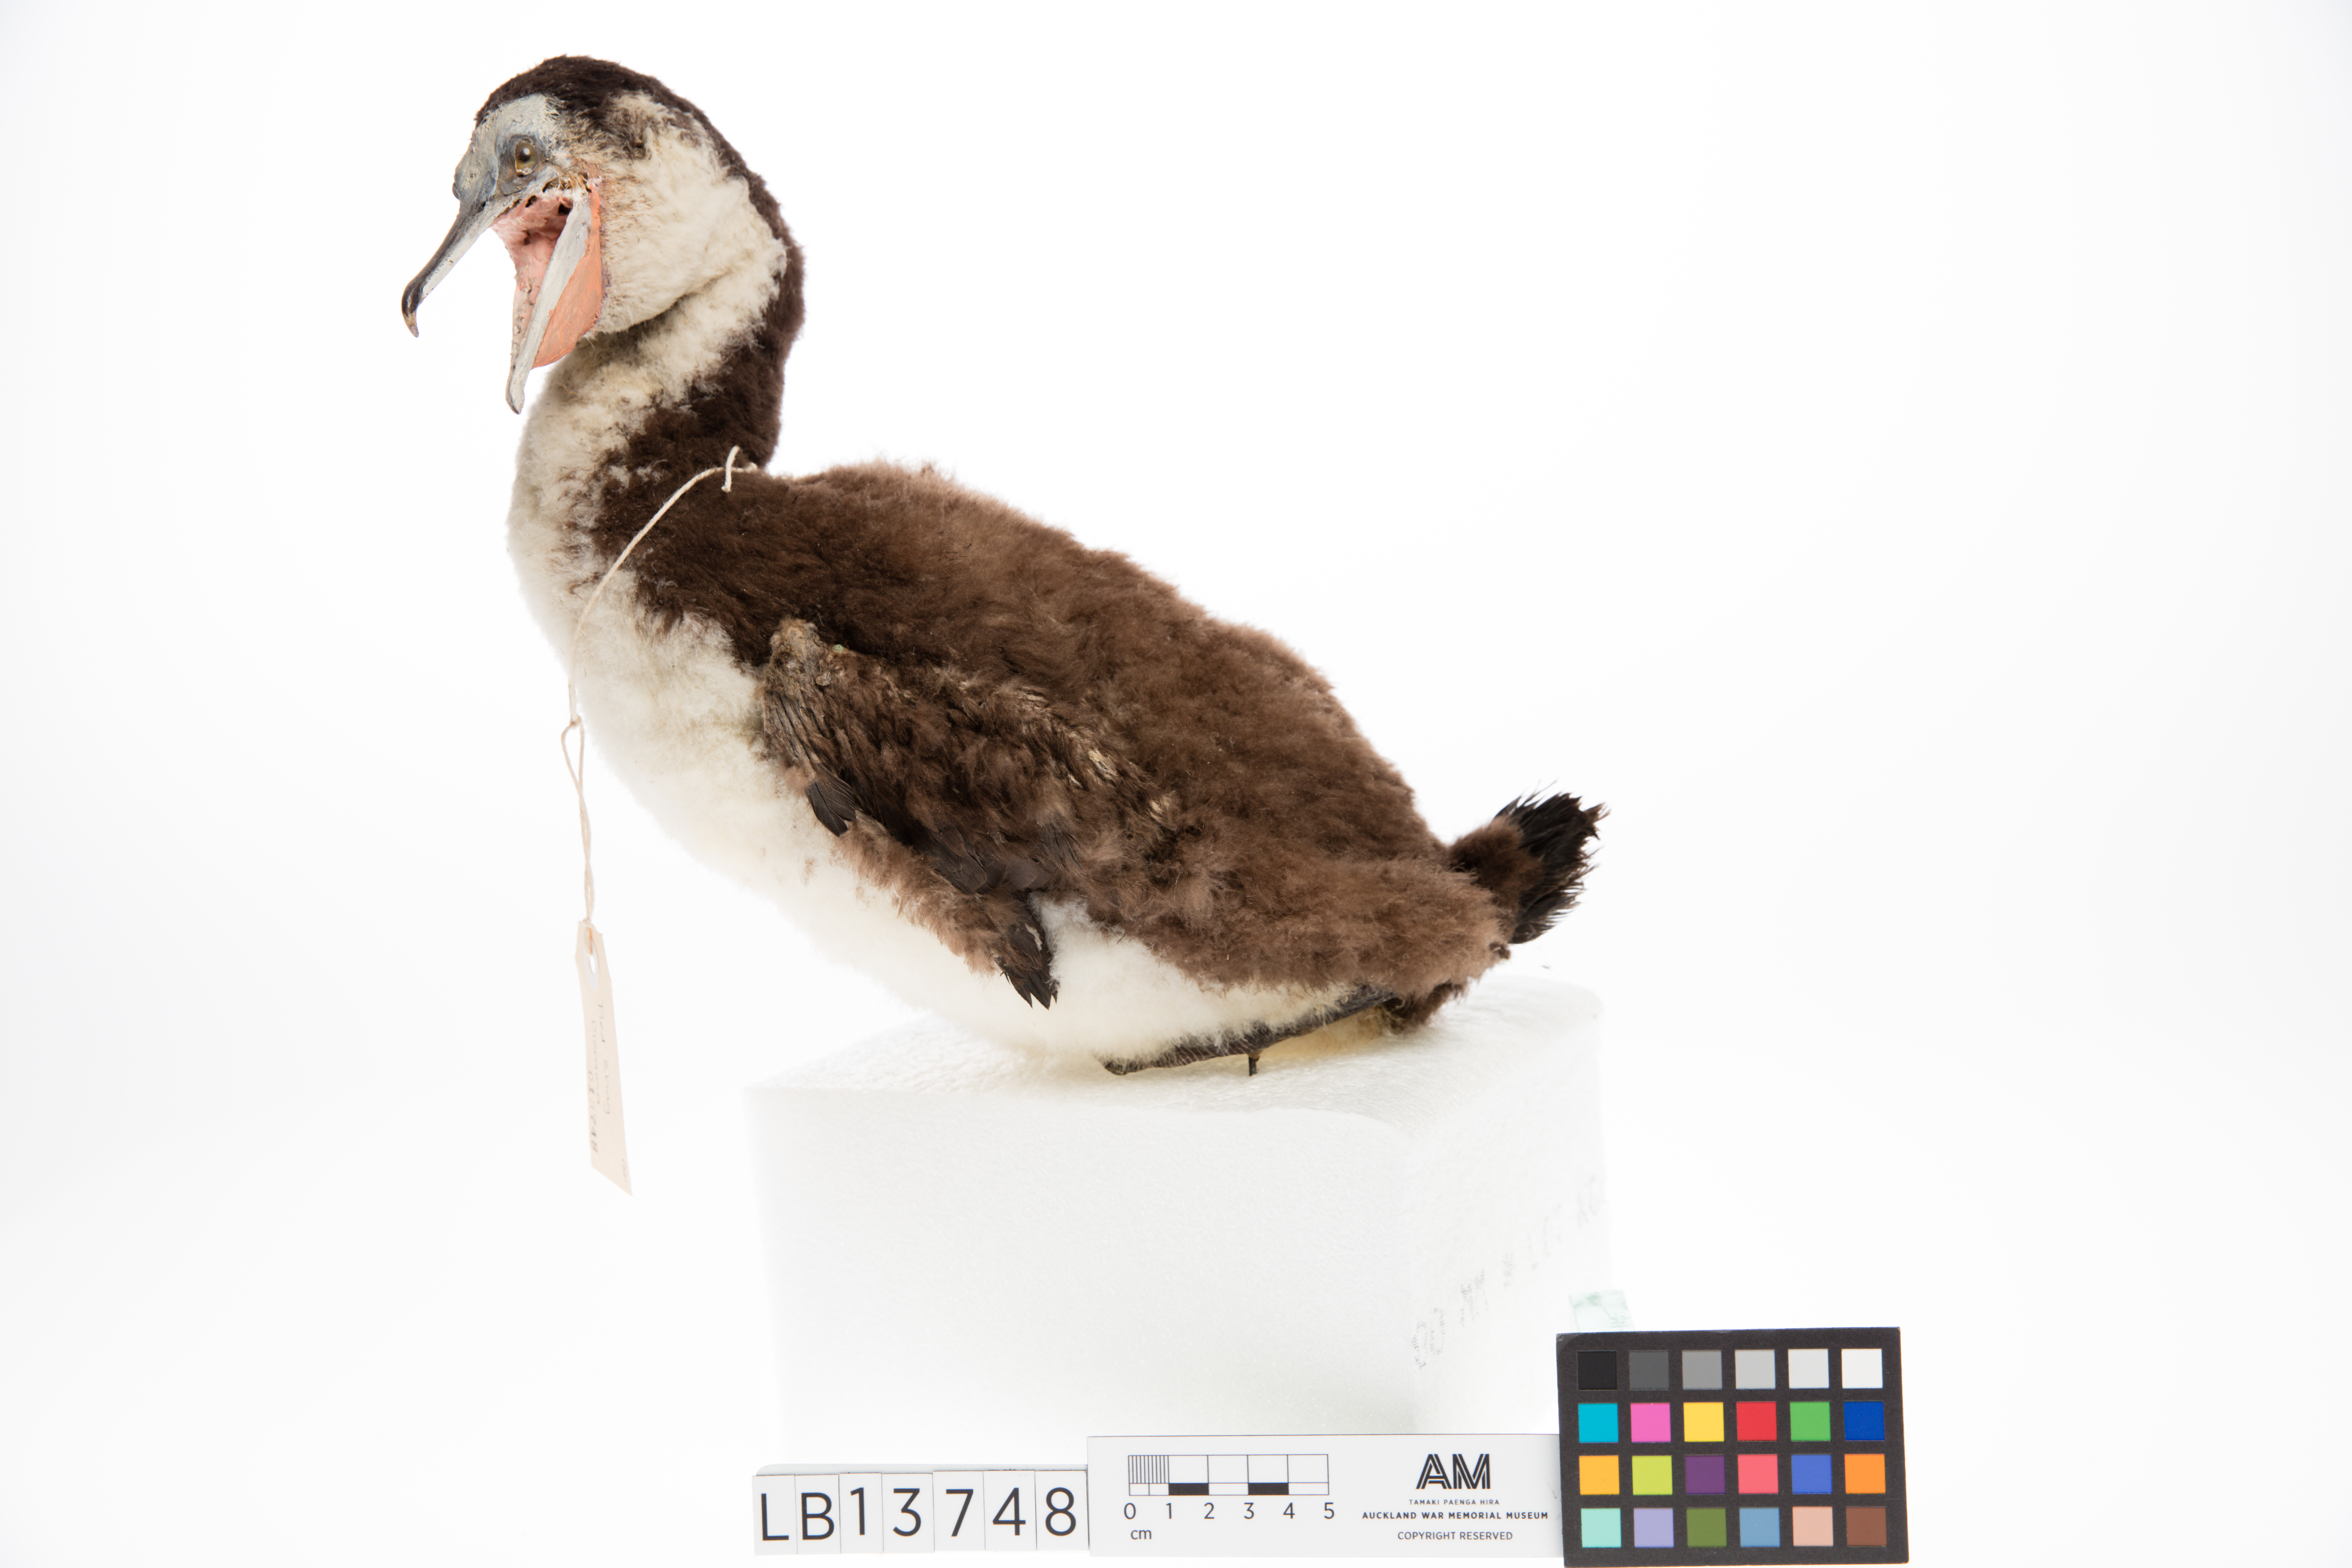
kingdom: Animalia
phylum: Chordata
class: Aves
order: Suliformes
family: Phalacrocoracidae
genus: Phalacrocorax
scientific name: Phalacrocorax varius
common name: Pied cormorant
